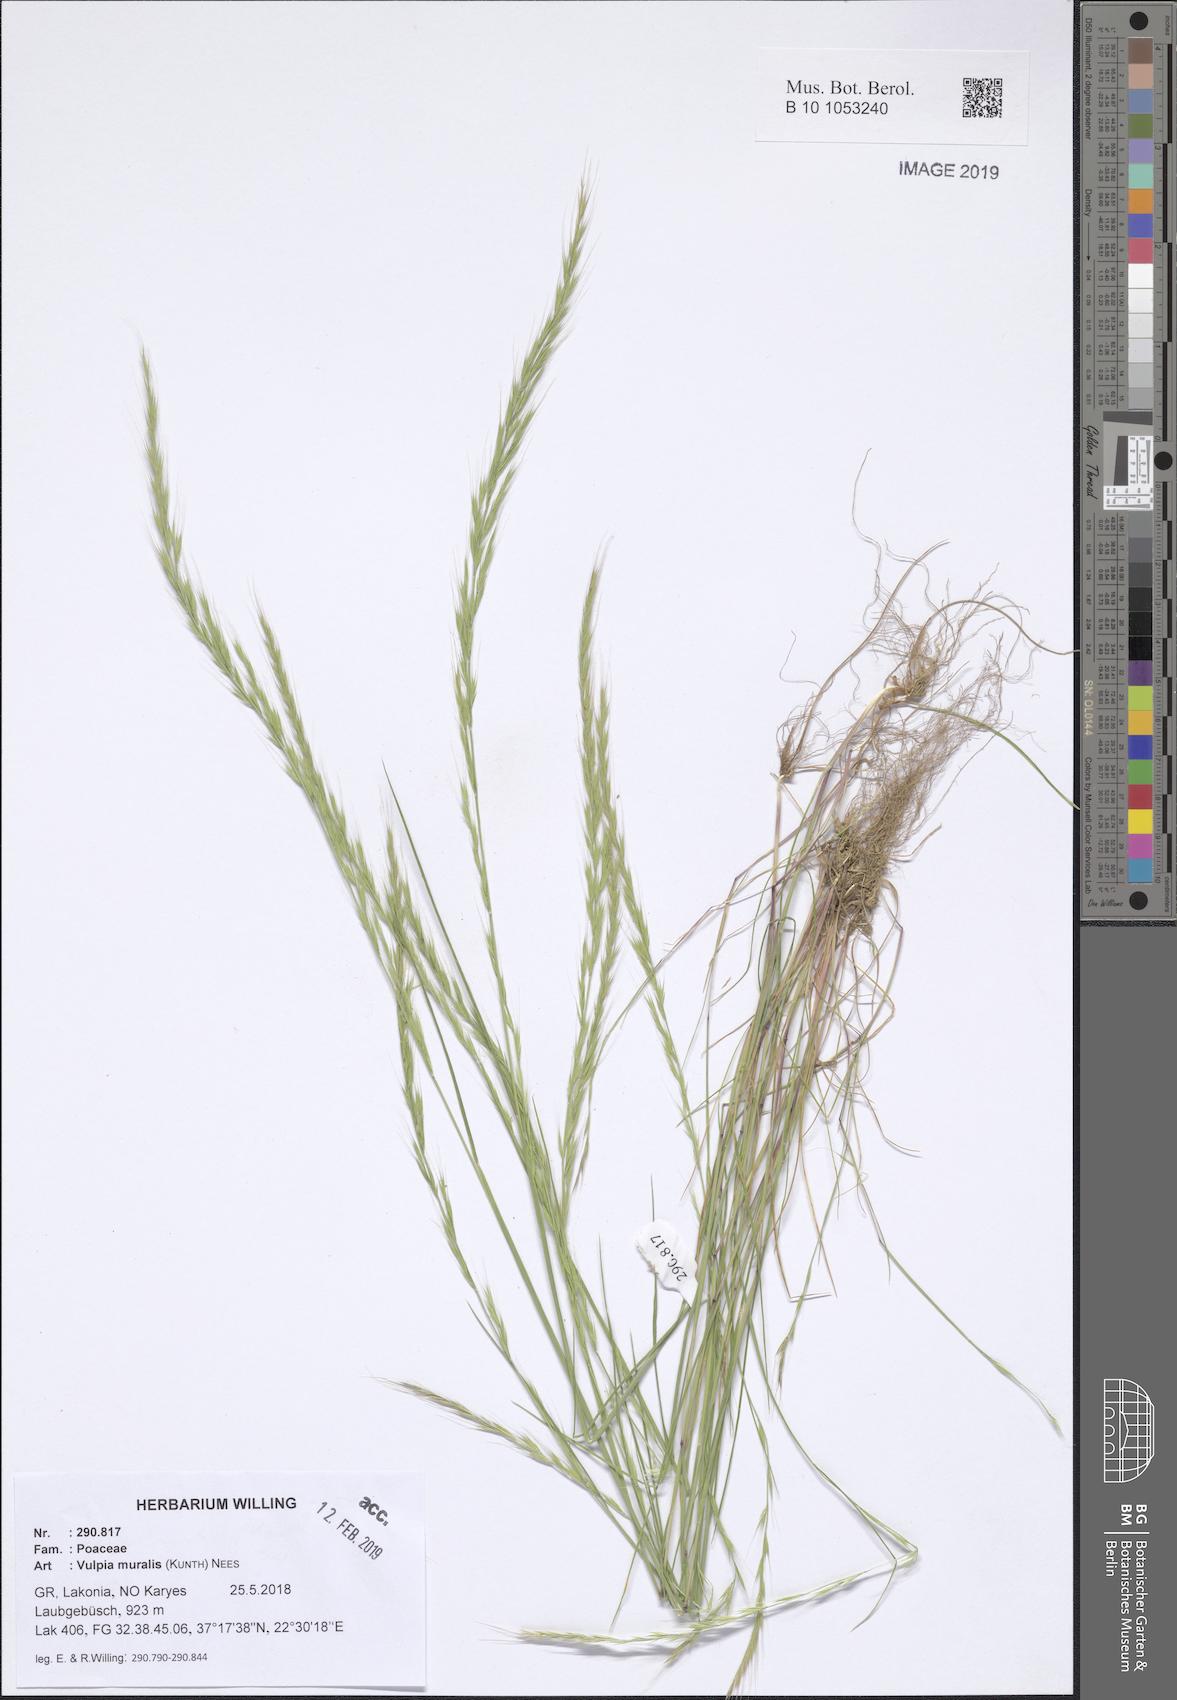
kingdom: Plantae
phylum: Tracheophyta
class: Liliopsida
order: Poales
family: Poaceae
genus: Festuca
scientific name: Festuca muralis
